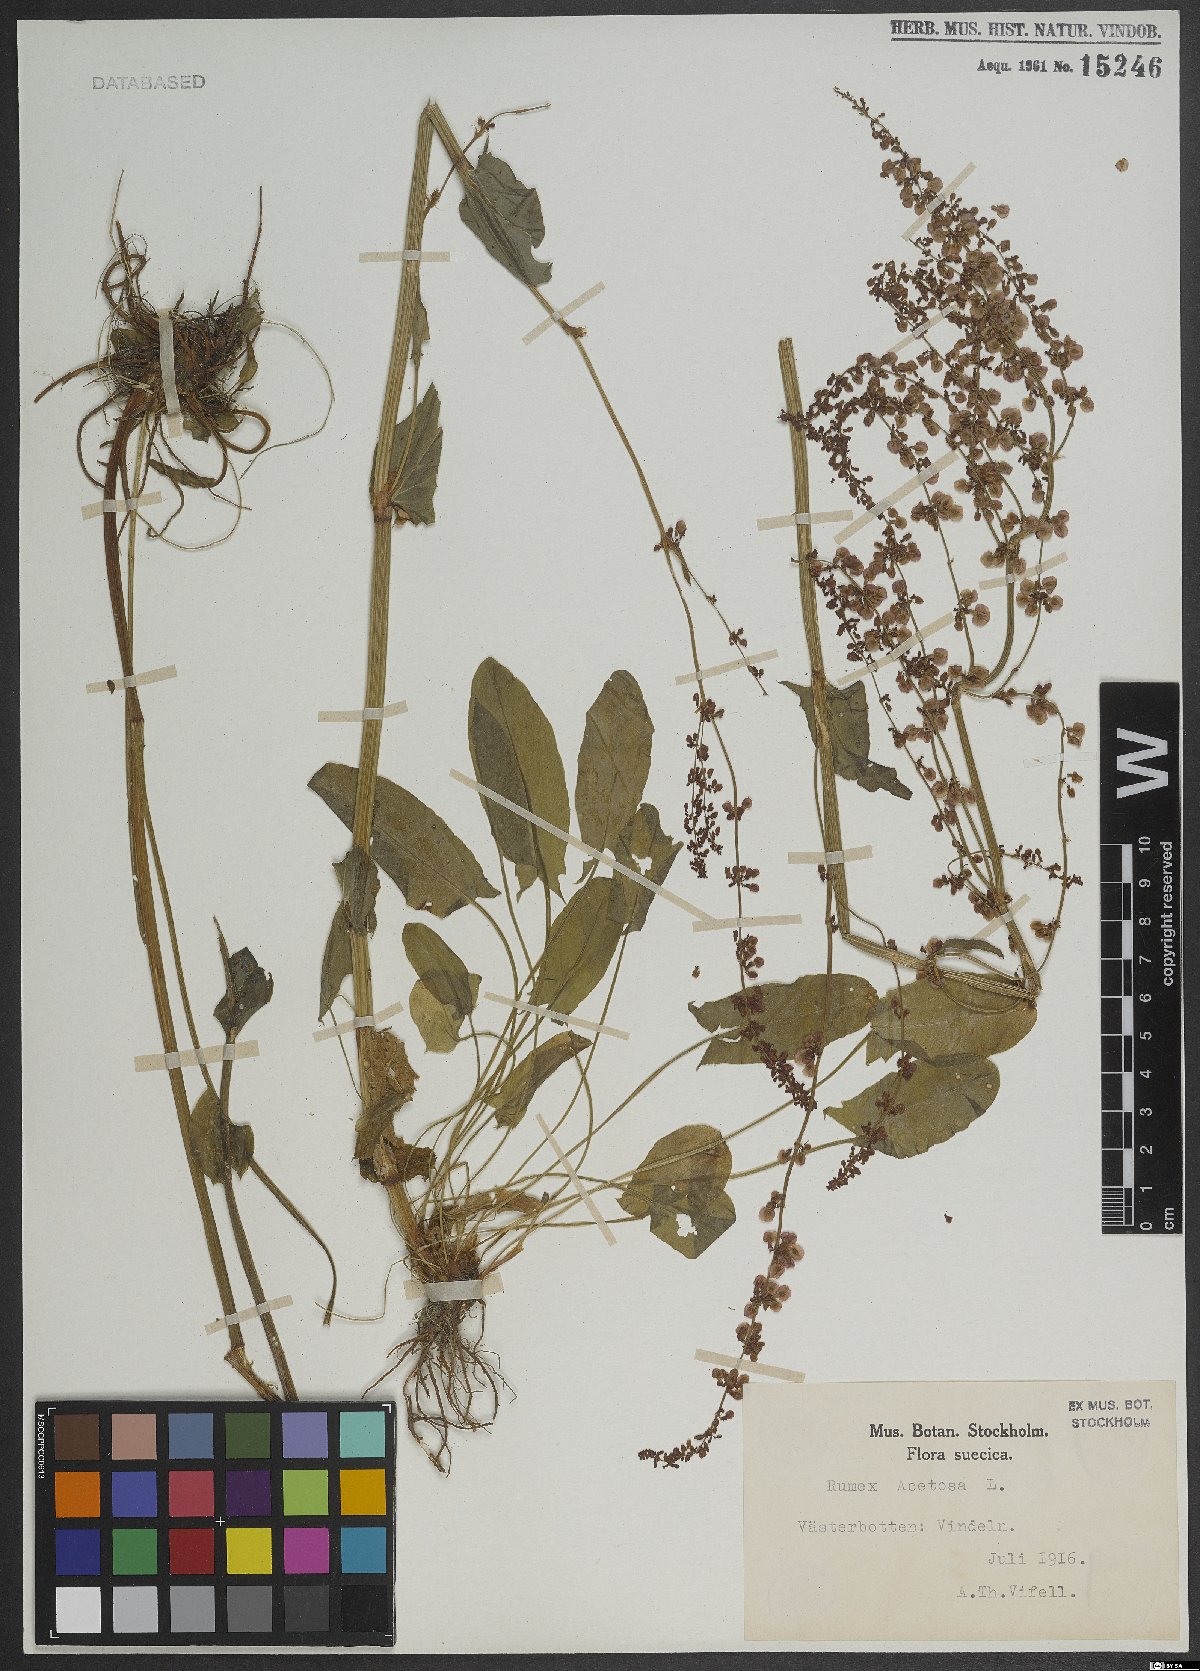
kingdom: Plantae
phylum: Tracheophyta
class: Magnoliopsida
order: Caryophyllales
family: Polygonaceae
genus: Rumex
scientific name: Rumex acetosa
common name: Garden sorrel
